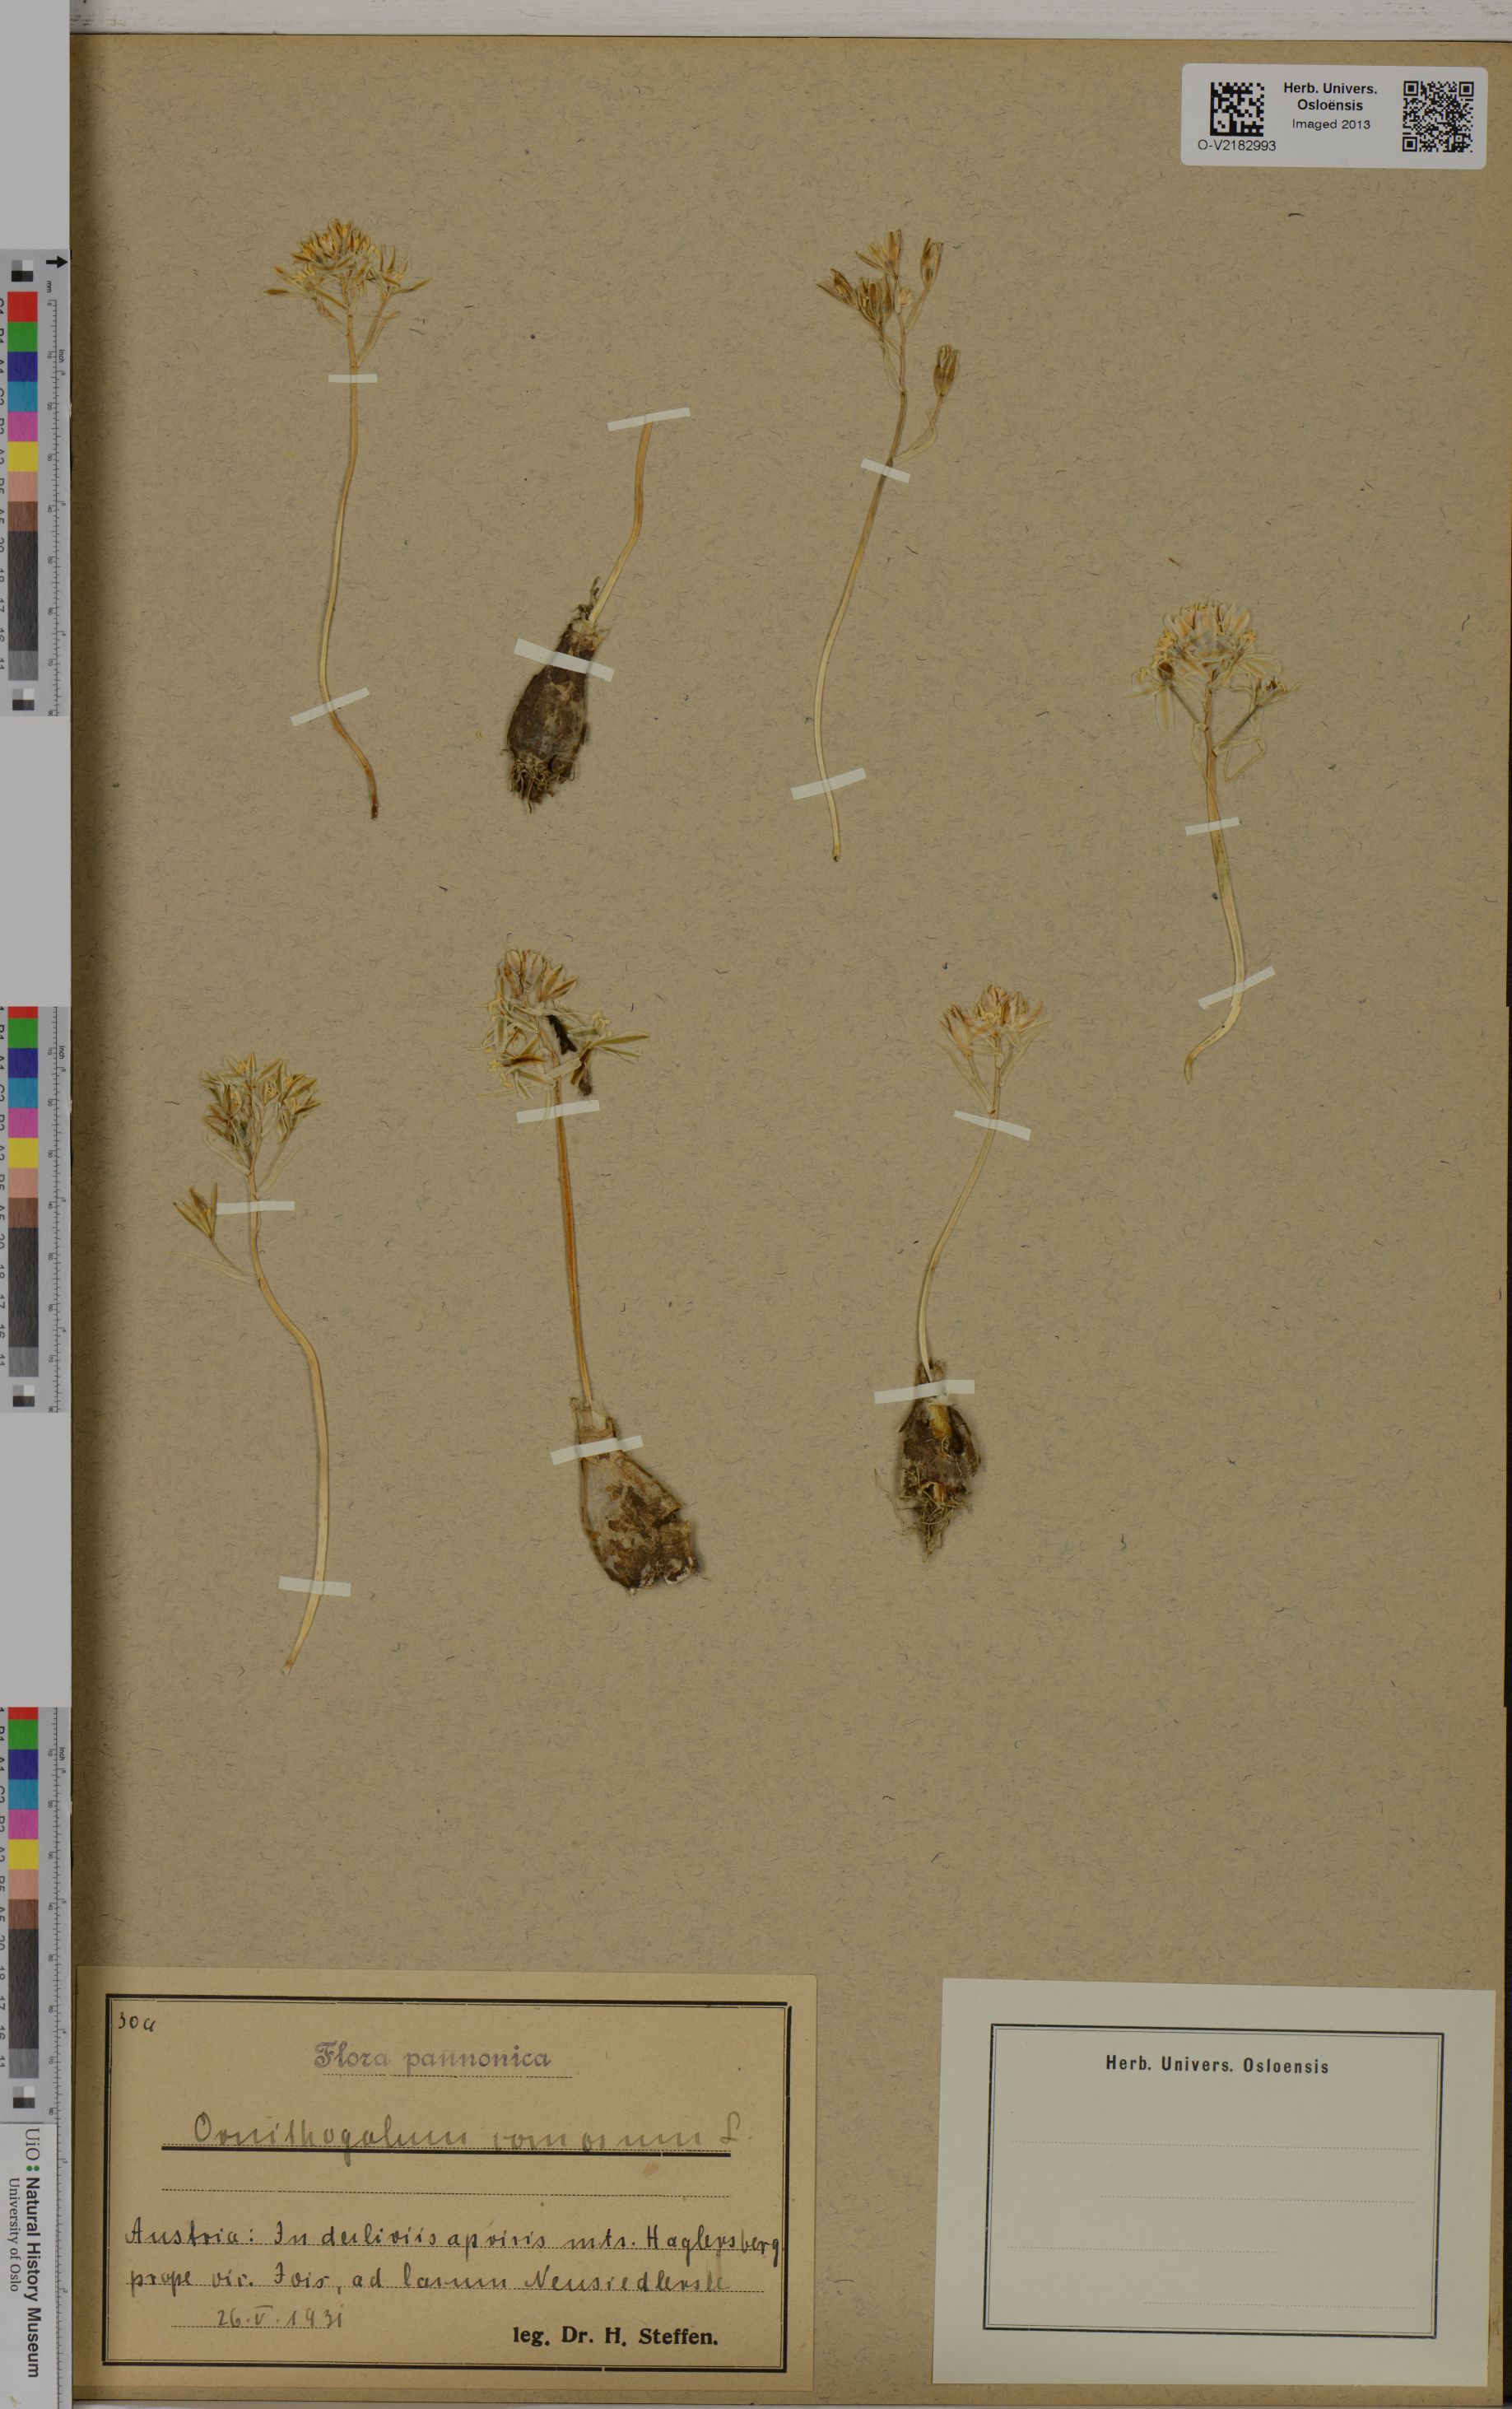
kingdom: Plantae
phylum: Tracheophyta
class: Liliopsida
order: Asparagales
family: Asparagaceae
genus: Ornithogalum
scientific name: Ornithogalum comosum
